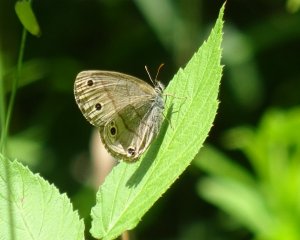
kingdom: Animalia
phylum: Arthropoda
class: Insecta
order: Lepidoptera
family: Nymphalidae
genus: Euptychia
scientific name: Euptychia cymela
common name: Little Wood Satyr
